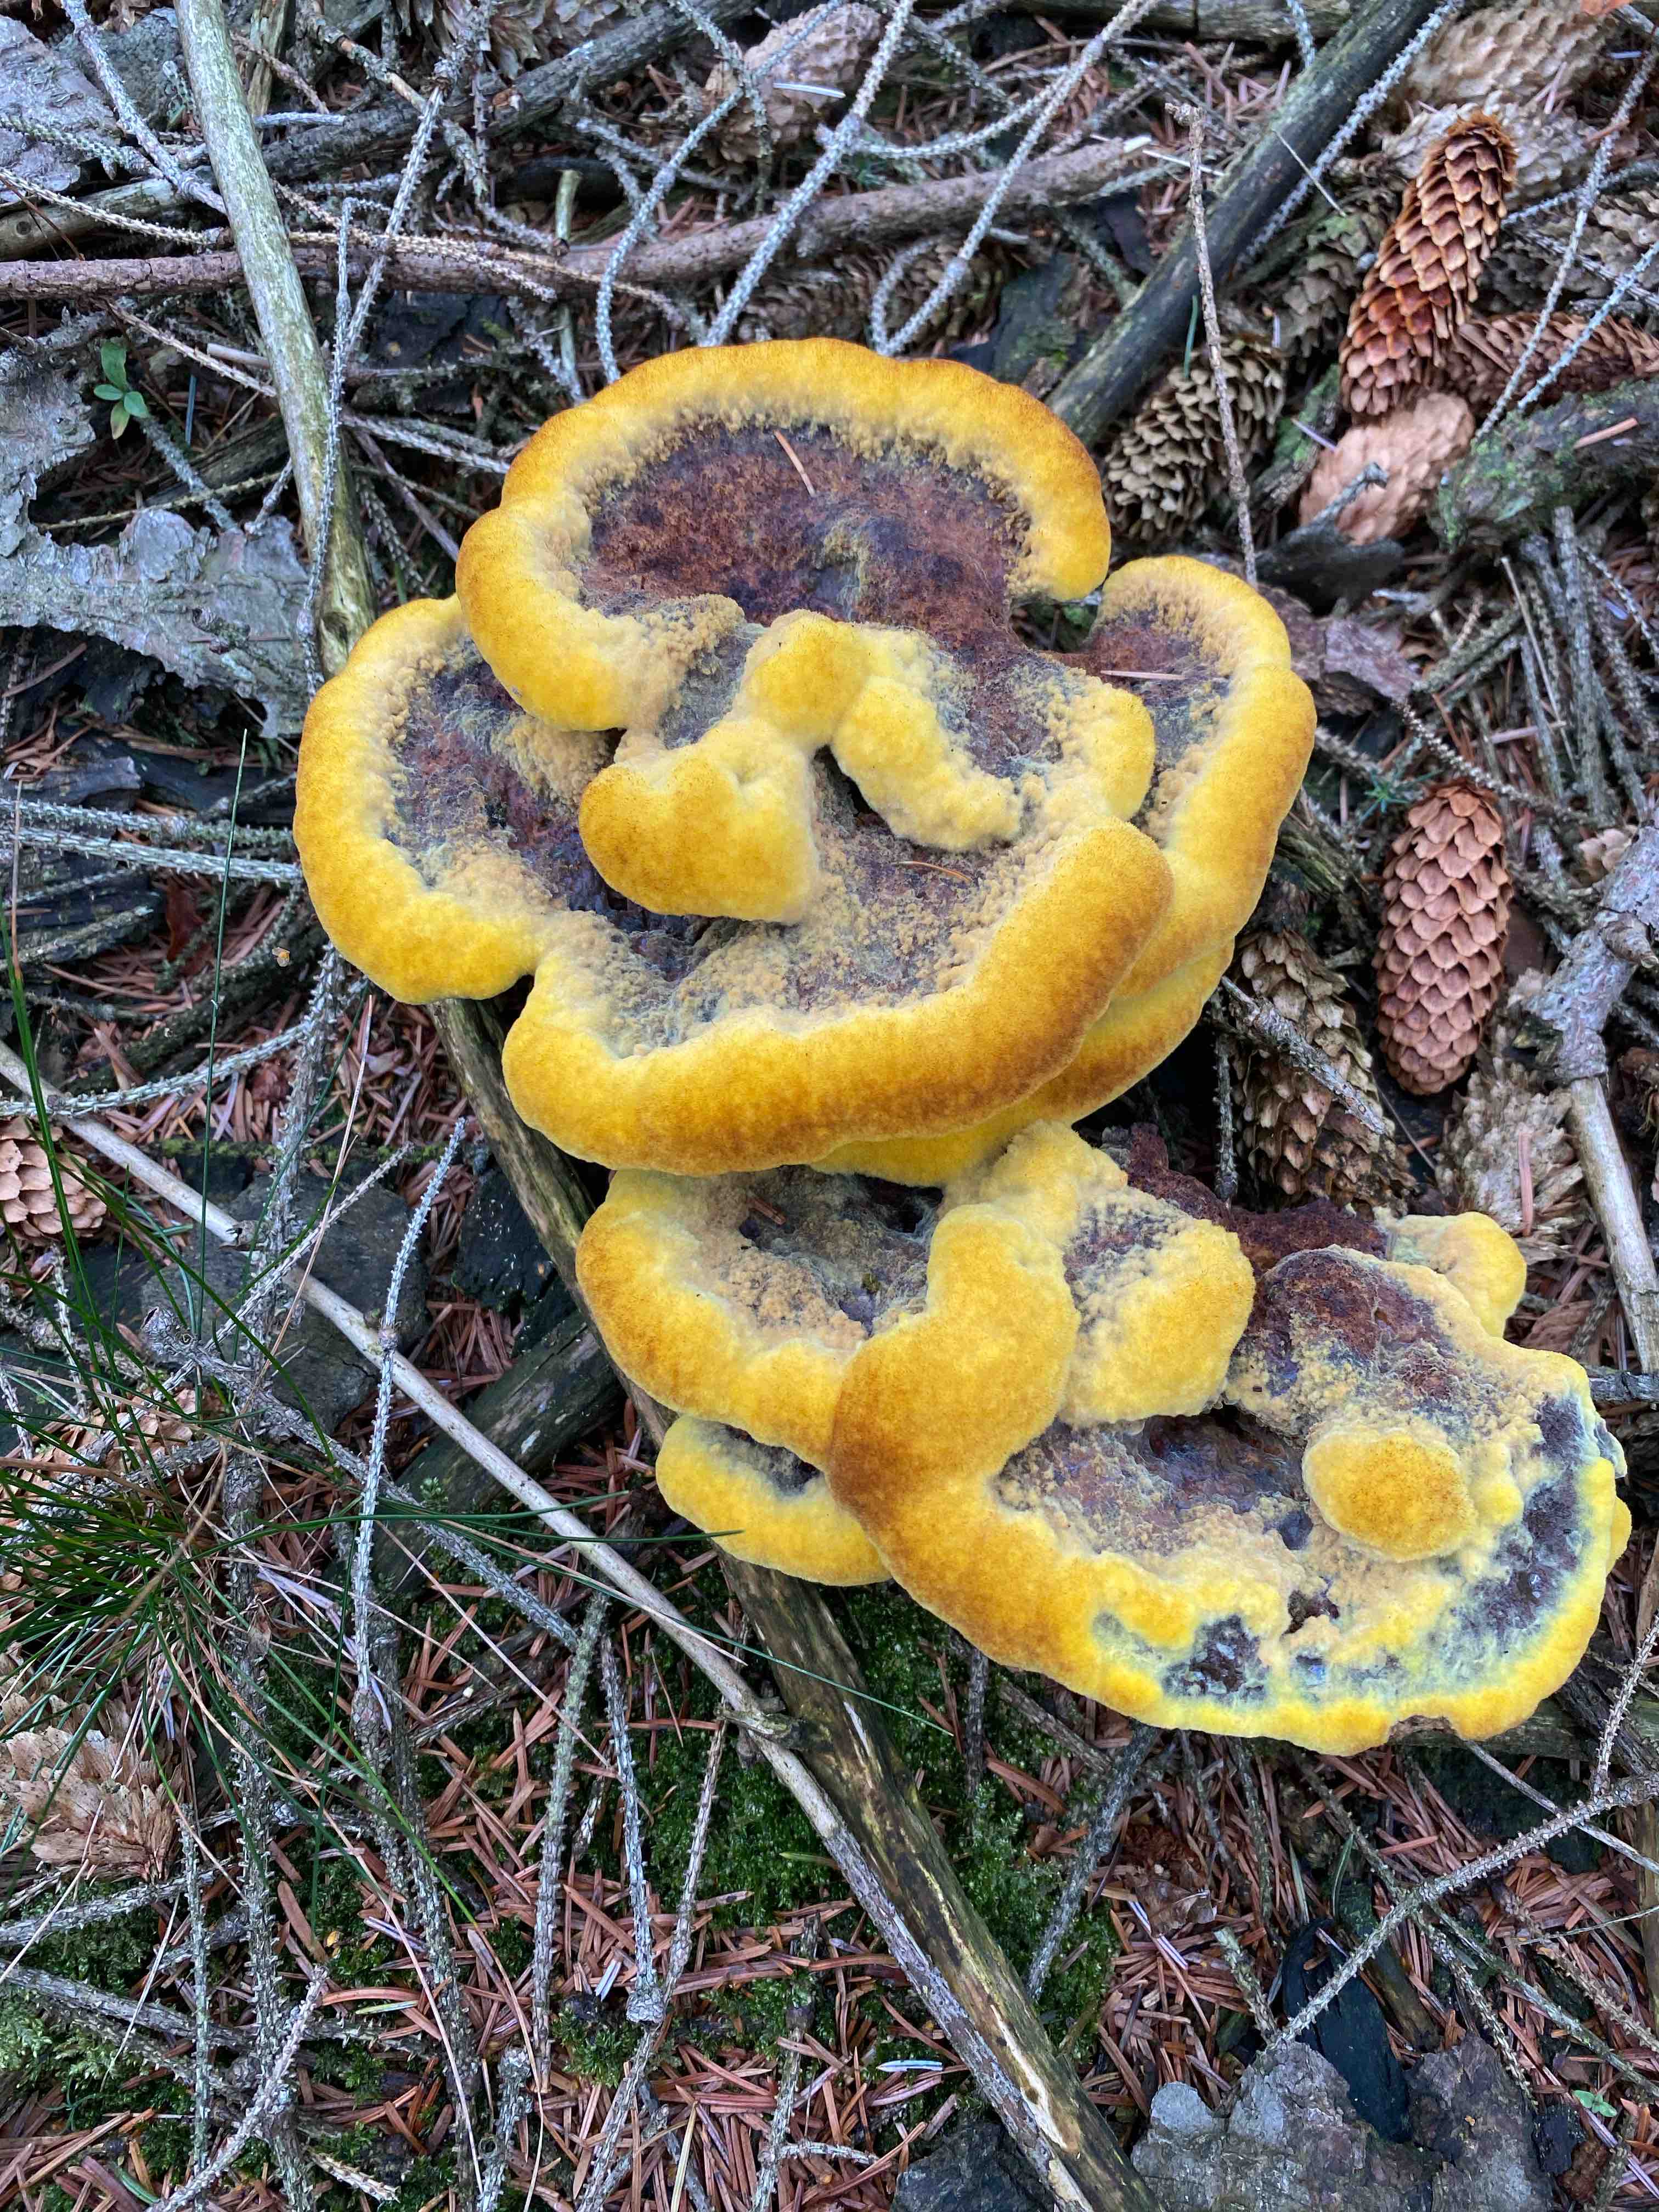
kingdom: Fungi
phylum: Basidiomycota
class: Agaricomycetes
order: Polyporales
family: Laetiporaceae
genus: Phaeolus
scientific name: Phaeolus schweinitzii
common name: brunporesvamp
